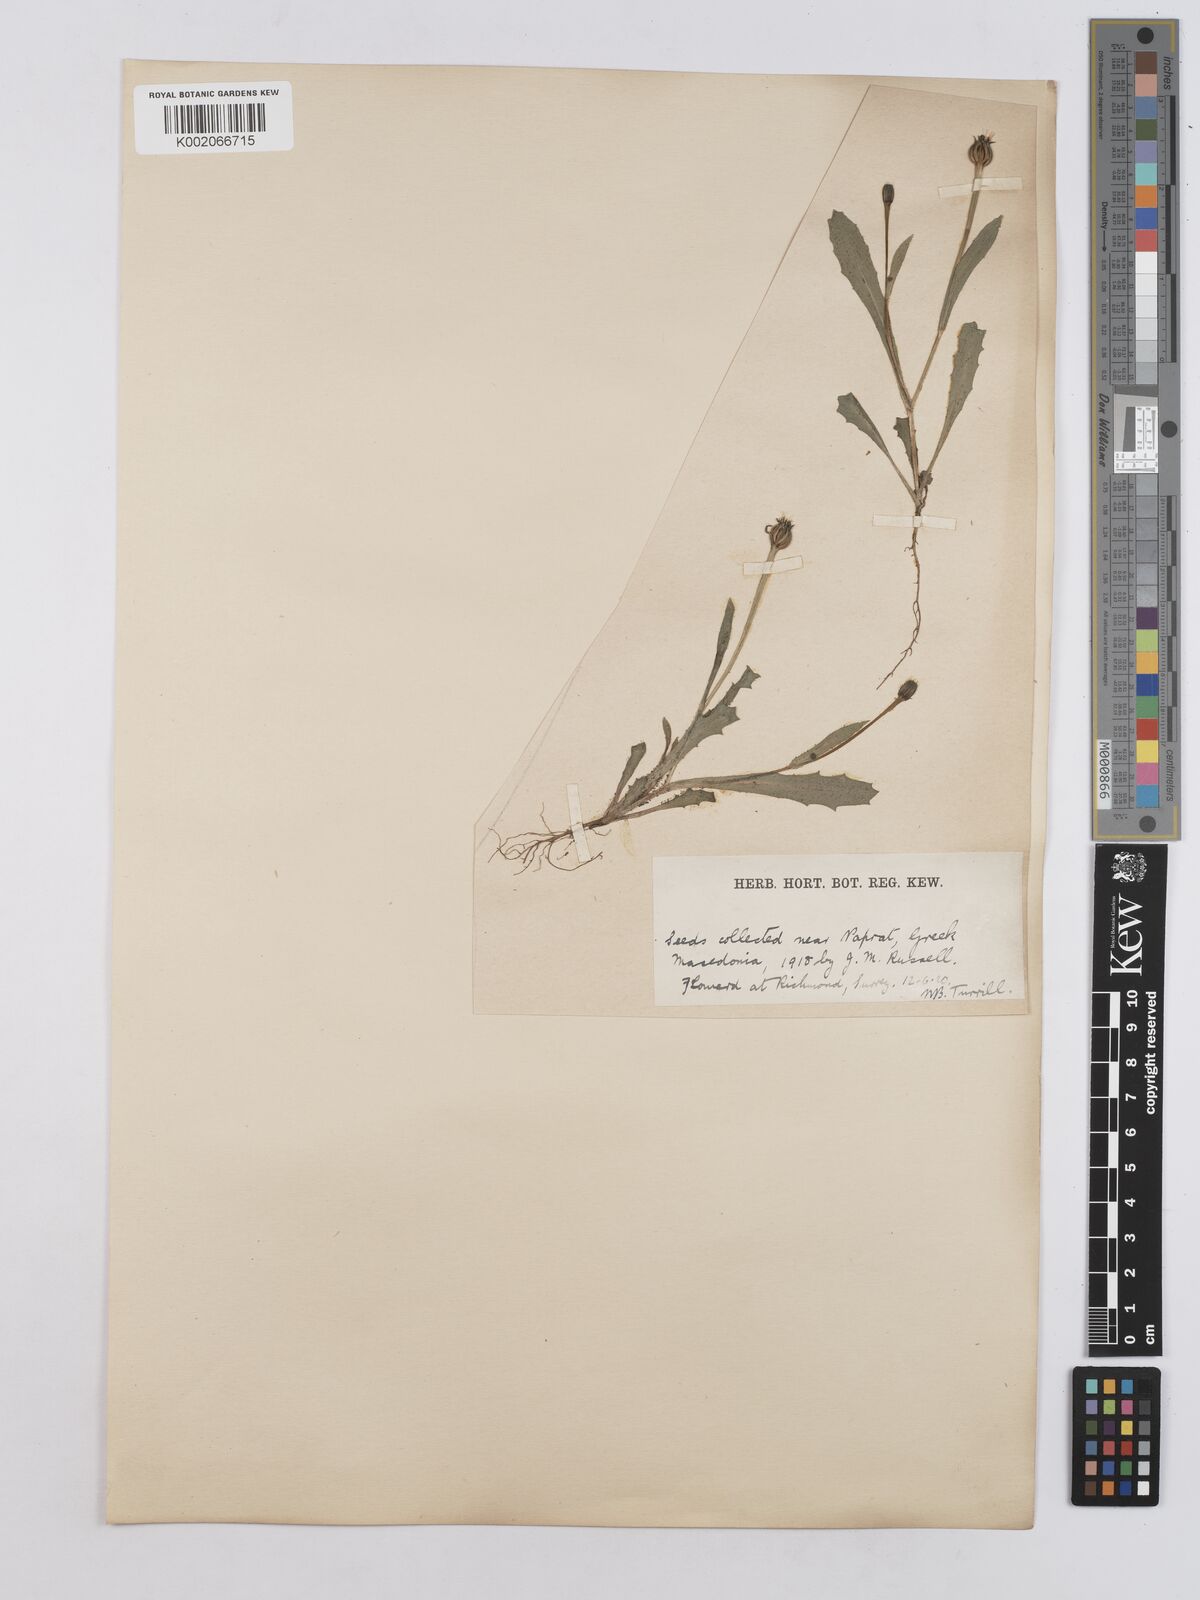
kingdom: Plantae
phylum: Tracheophyta
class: Magnoliopsida
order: Asterales
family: Asteraceae
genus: Hedypnois
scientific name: Hedypnois rhagadioloides
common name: Cretan weed
